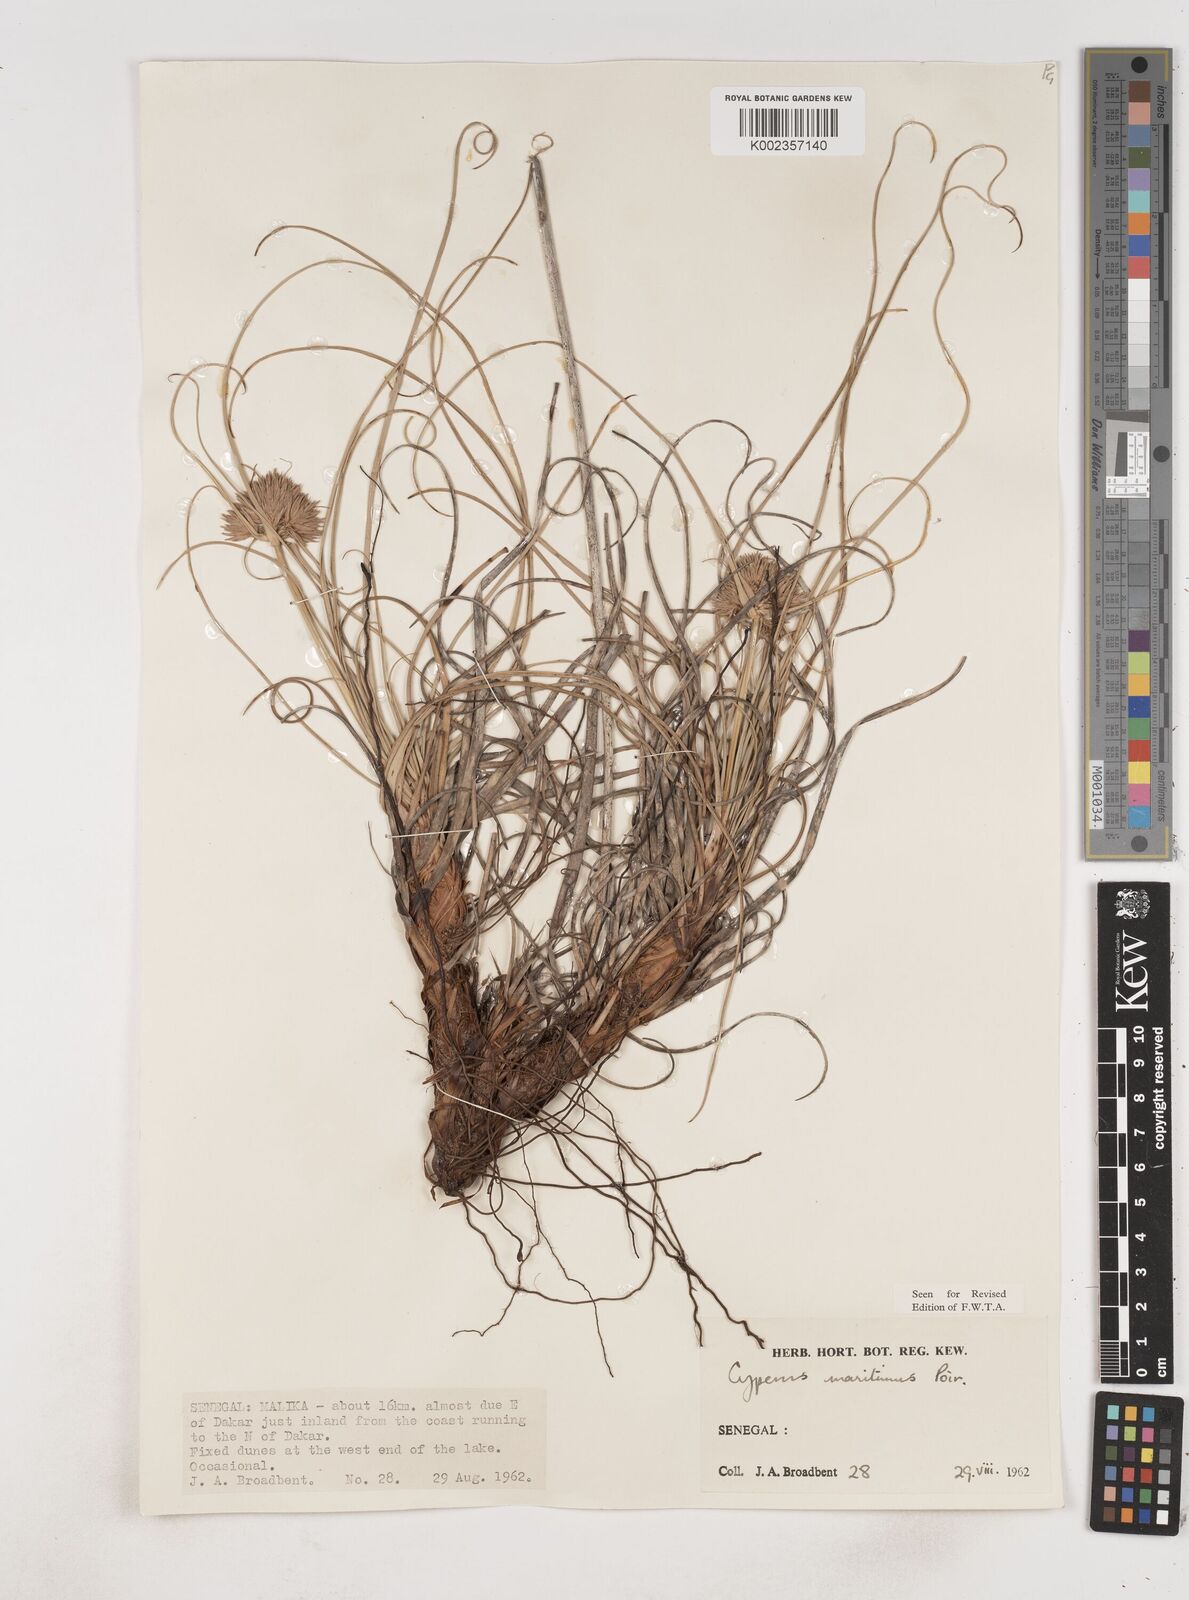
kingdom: Plantae
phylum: Tracheophyta
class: Liliopsida
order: Poales
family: Cyperaceae
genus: Cyperus
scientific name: Cyperus crassipes
